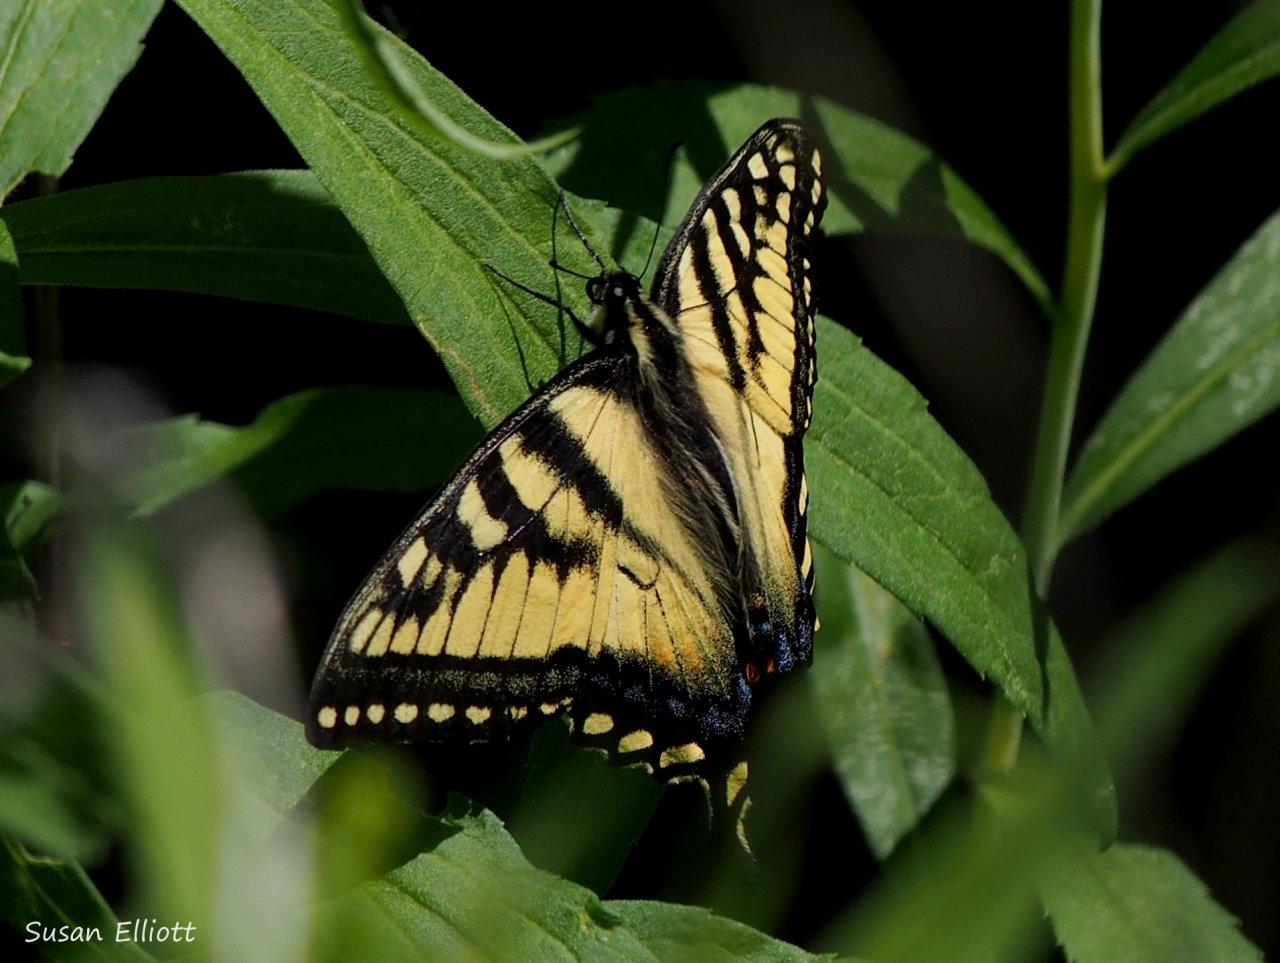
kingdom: Animalia
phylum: Arthropoda
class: Insecta
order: Lepidoptera
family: Papilionidae
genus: Pterourus
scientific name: Pterourus canadensis
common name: Canadian Tiger Swallowtail
